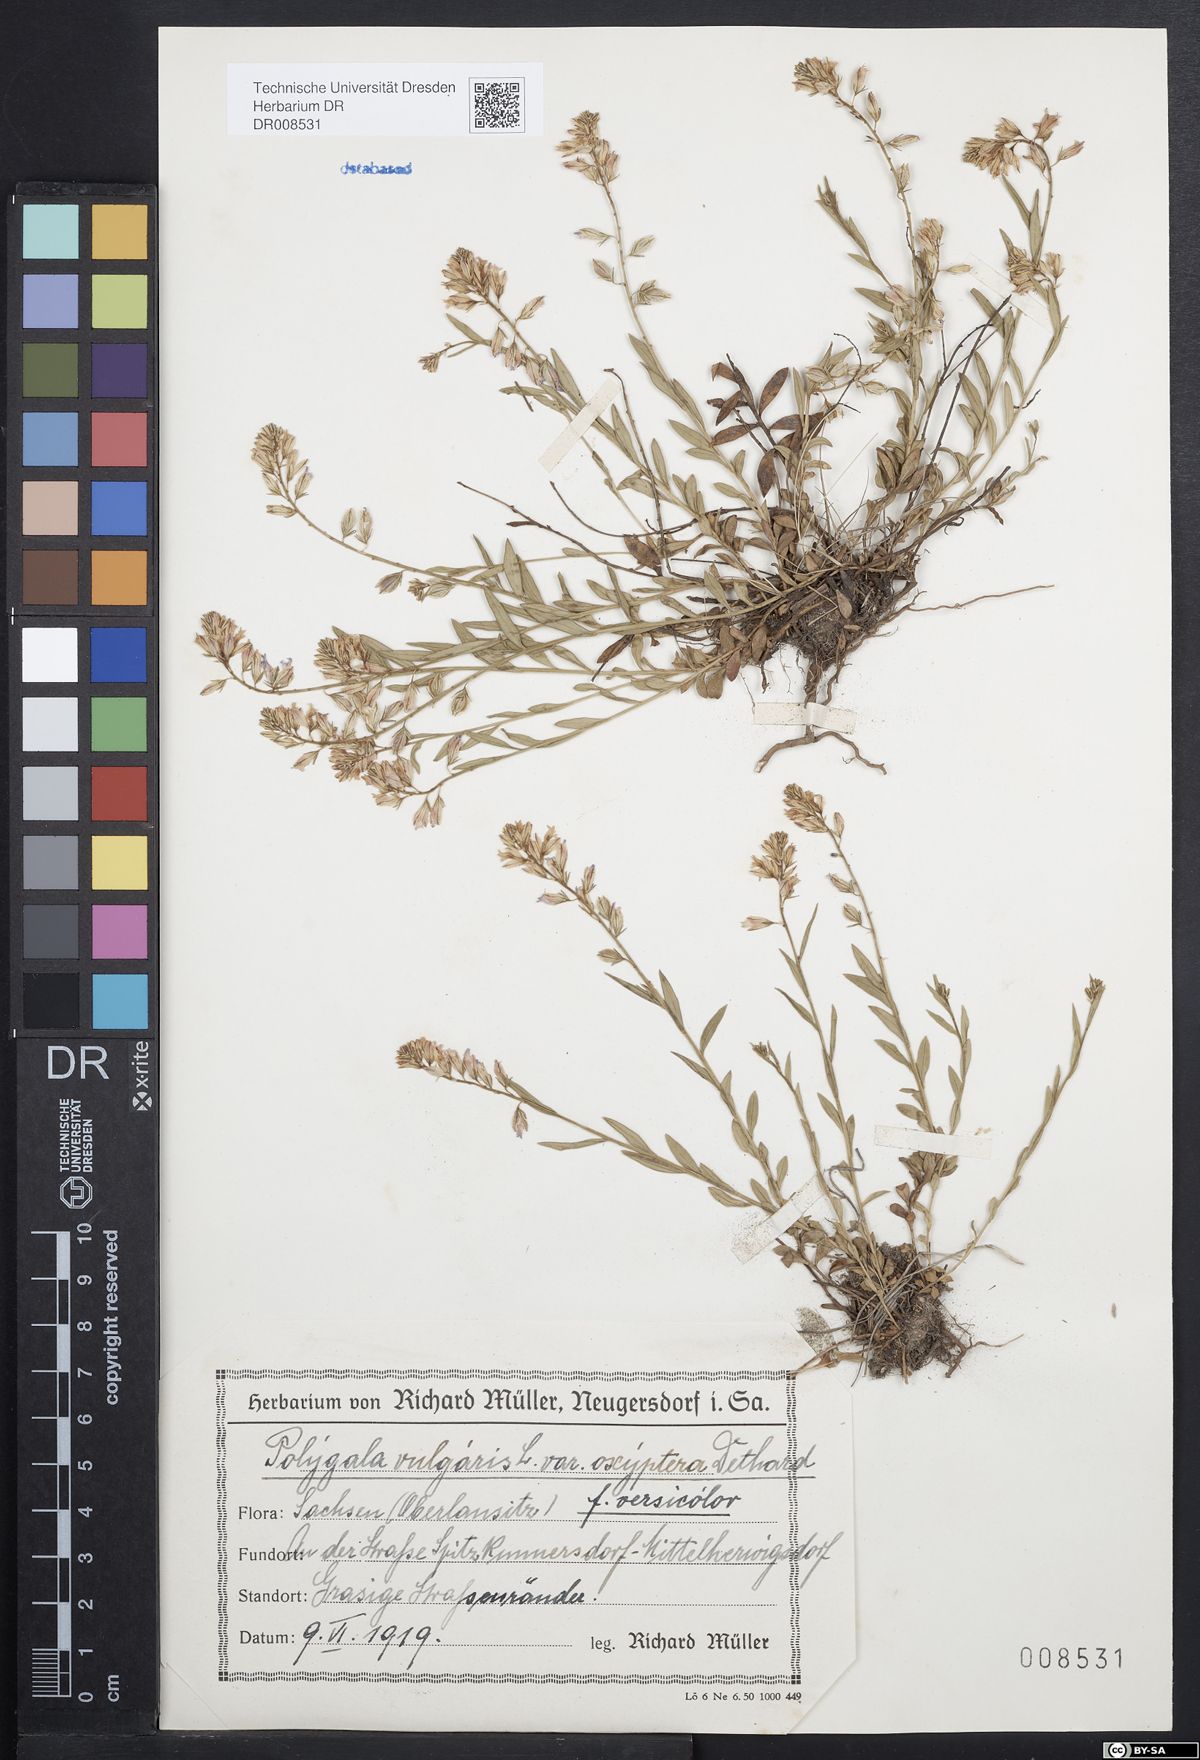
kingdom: Plantae
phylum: Tracheophyta
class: Magnoliopsida
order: Fabales
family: Polygalaceae
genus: Polygala
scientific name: Polygala vulgaris
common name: Common milkwort
